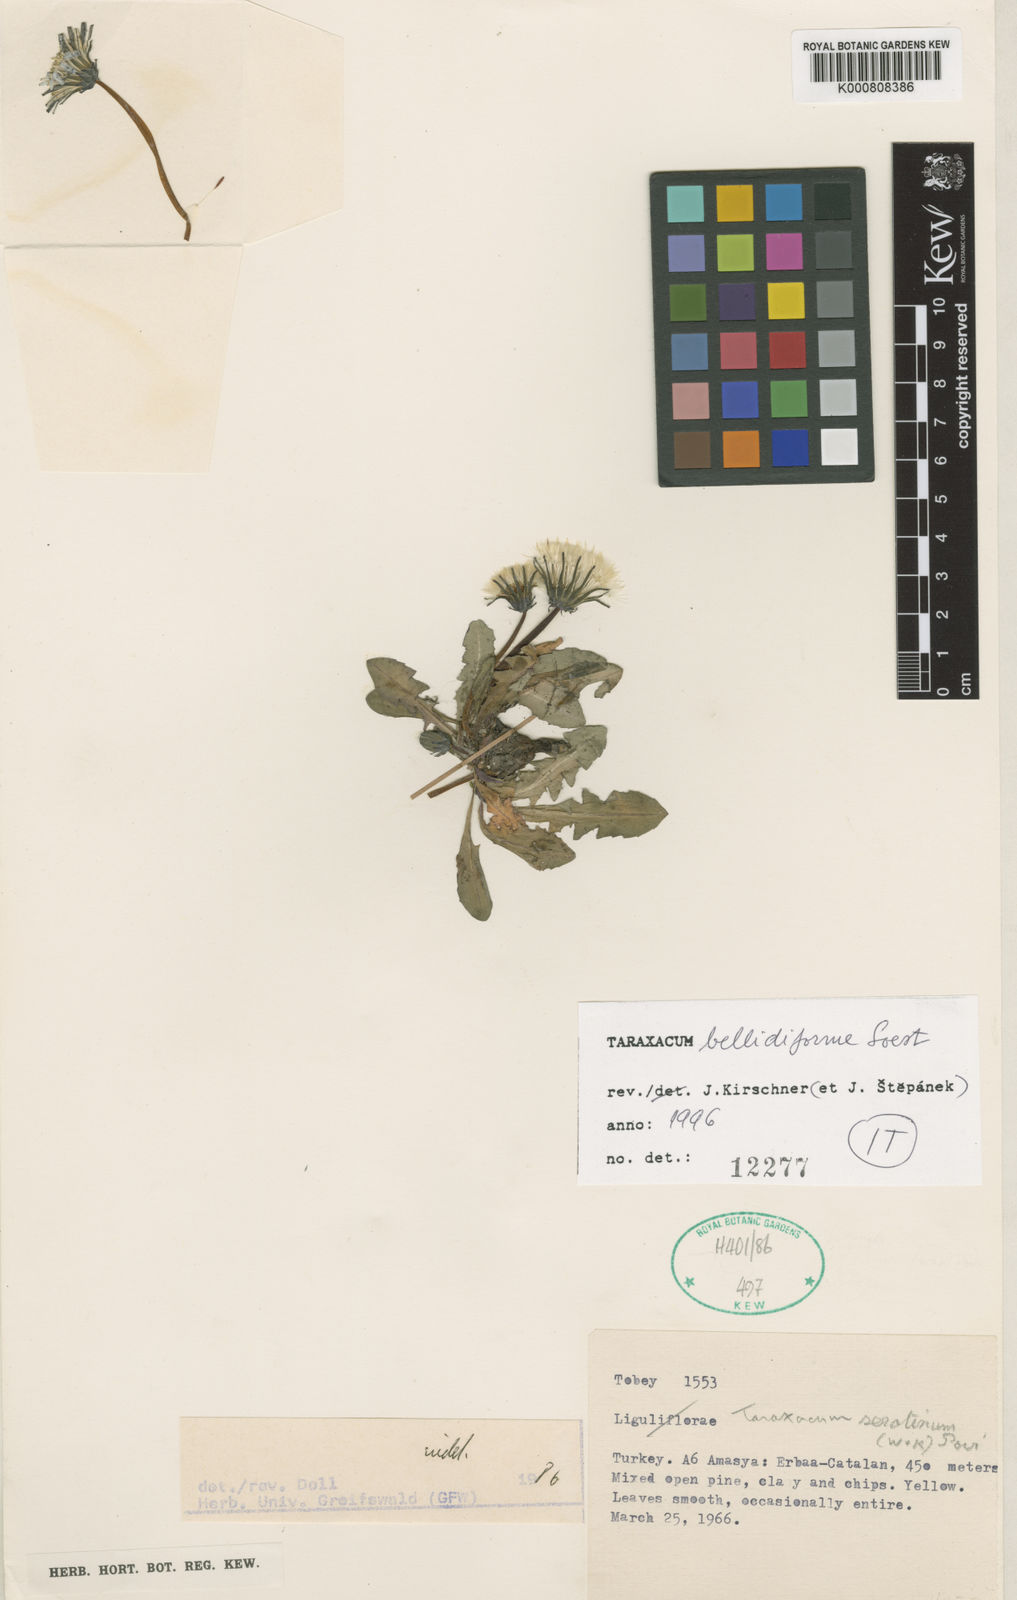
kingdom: Plantae
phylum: Tracheophyta
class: Magnoliopsida
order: Asterales
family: Asteraceae
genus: Taraxacum
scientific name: Taraxacum stevenii
